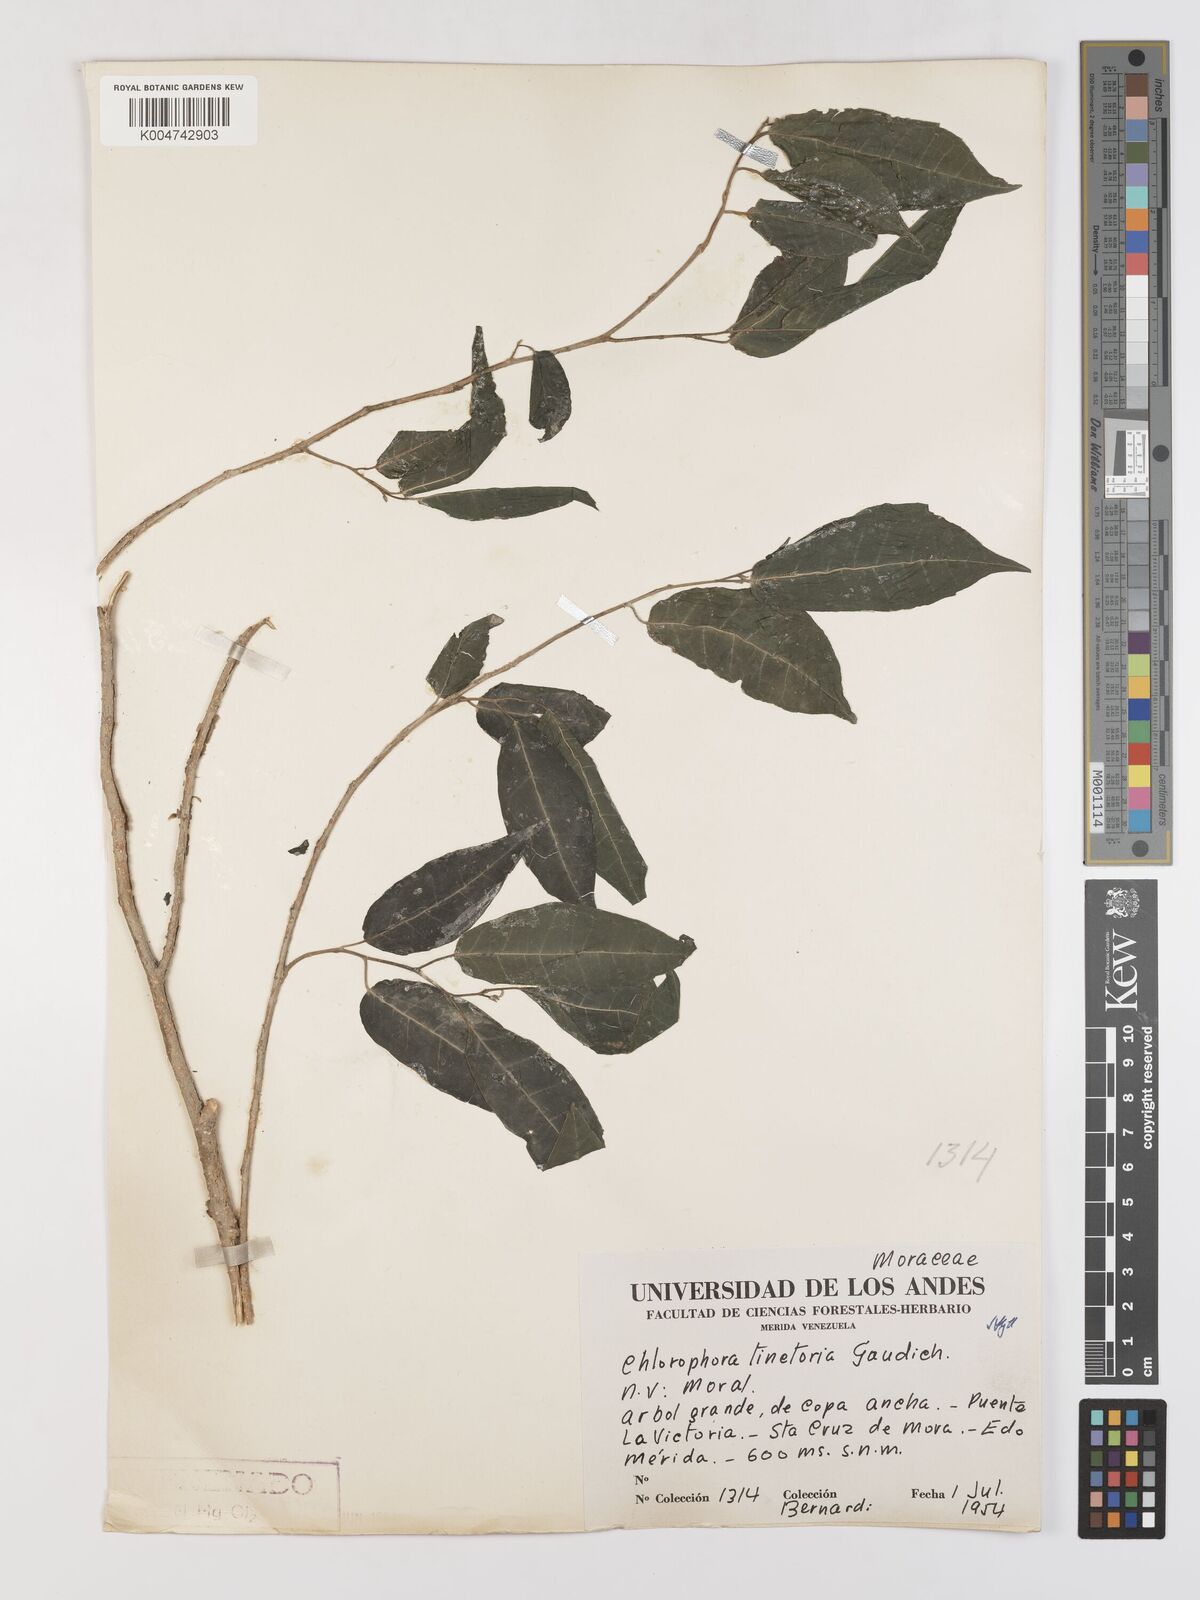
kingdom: Plantae
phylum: Tracheophyta
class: Magnoliopsida
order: Rosales
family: Moraceae
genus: Maclura
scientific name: Maclura tinctoria
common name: Old fustic
